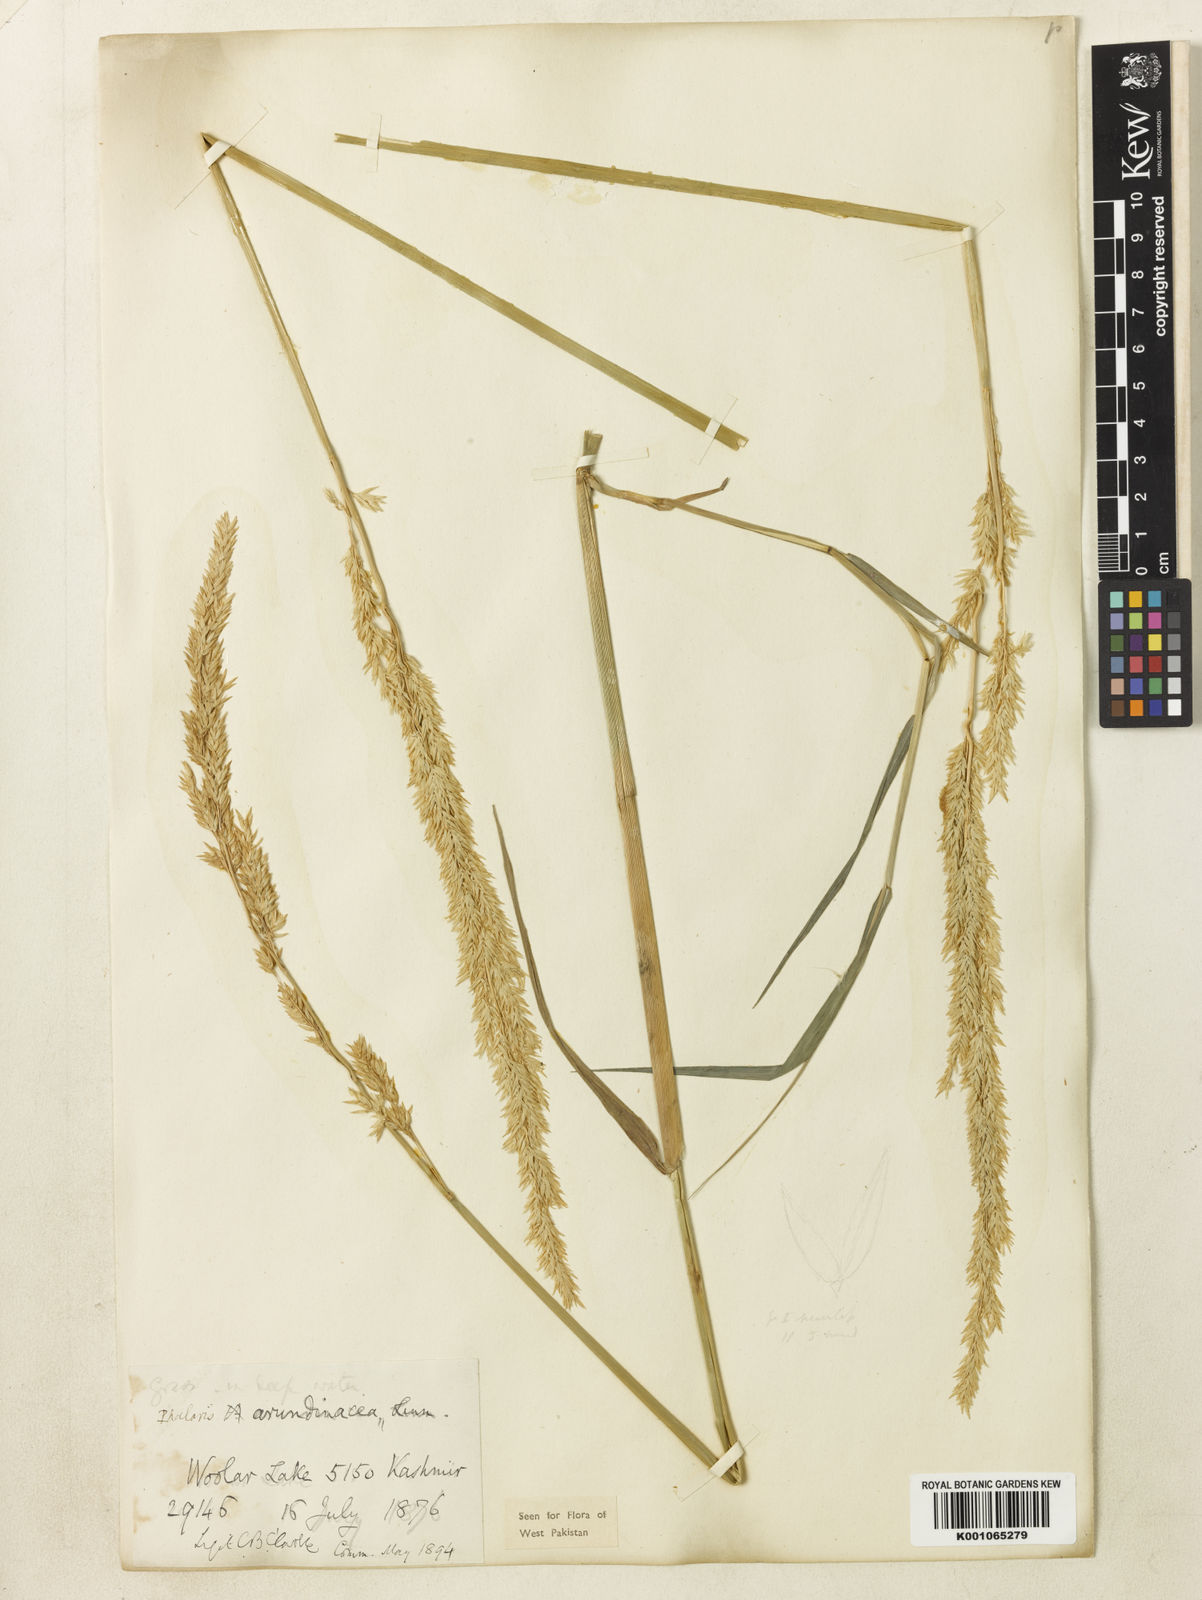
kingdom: Plantae
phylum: Tracheophyta
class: Liliopsida
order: Poales
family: Poaceae
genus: Phalaris
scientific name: Phalaris arundinacea
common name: Reed canary-grass
